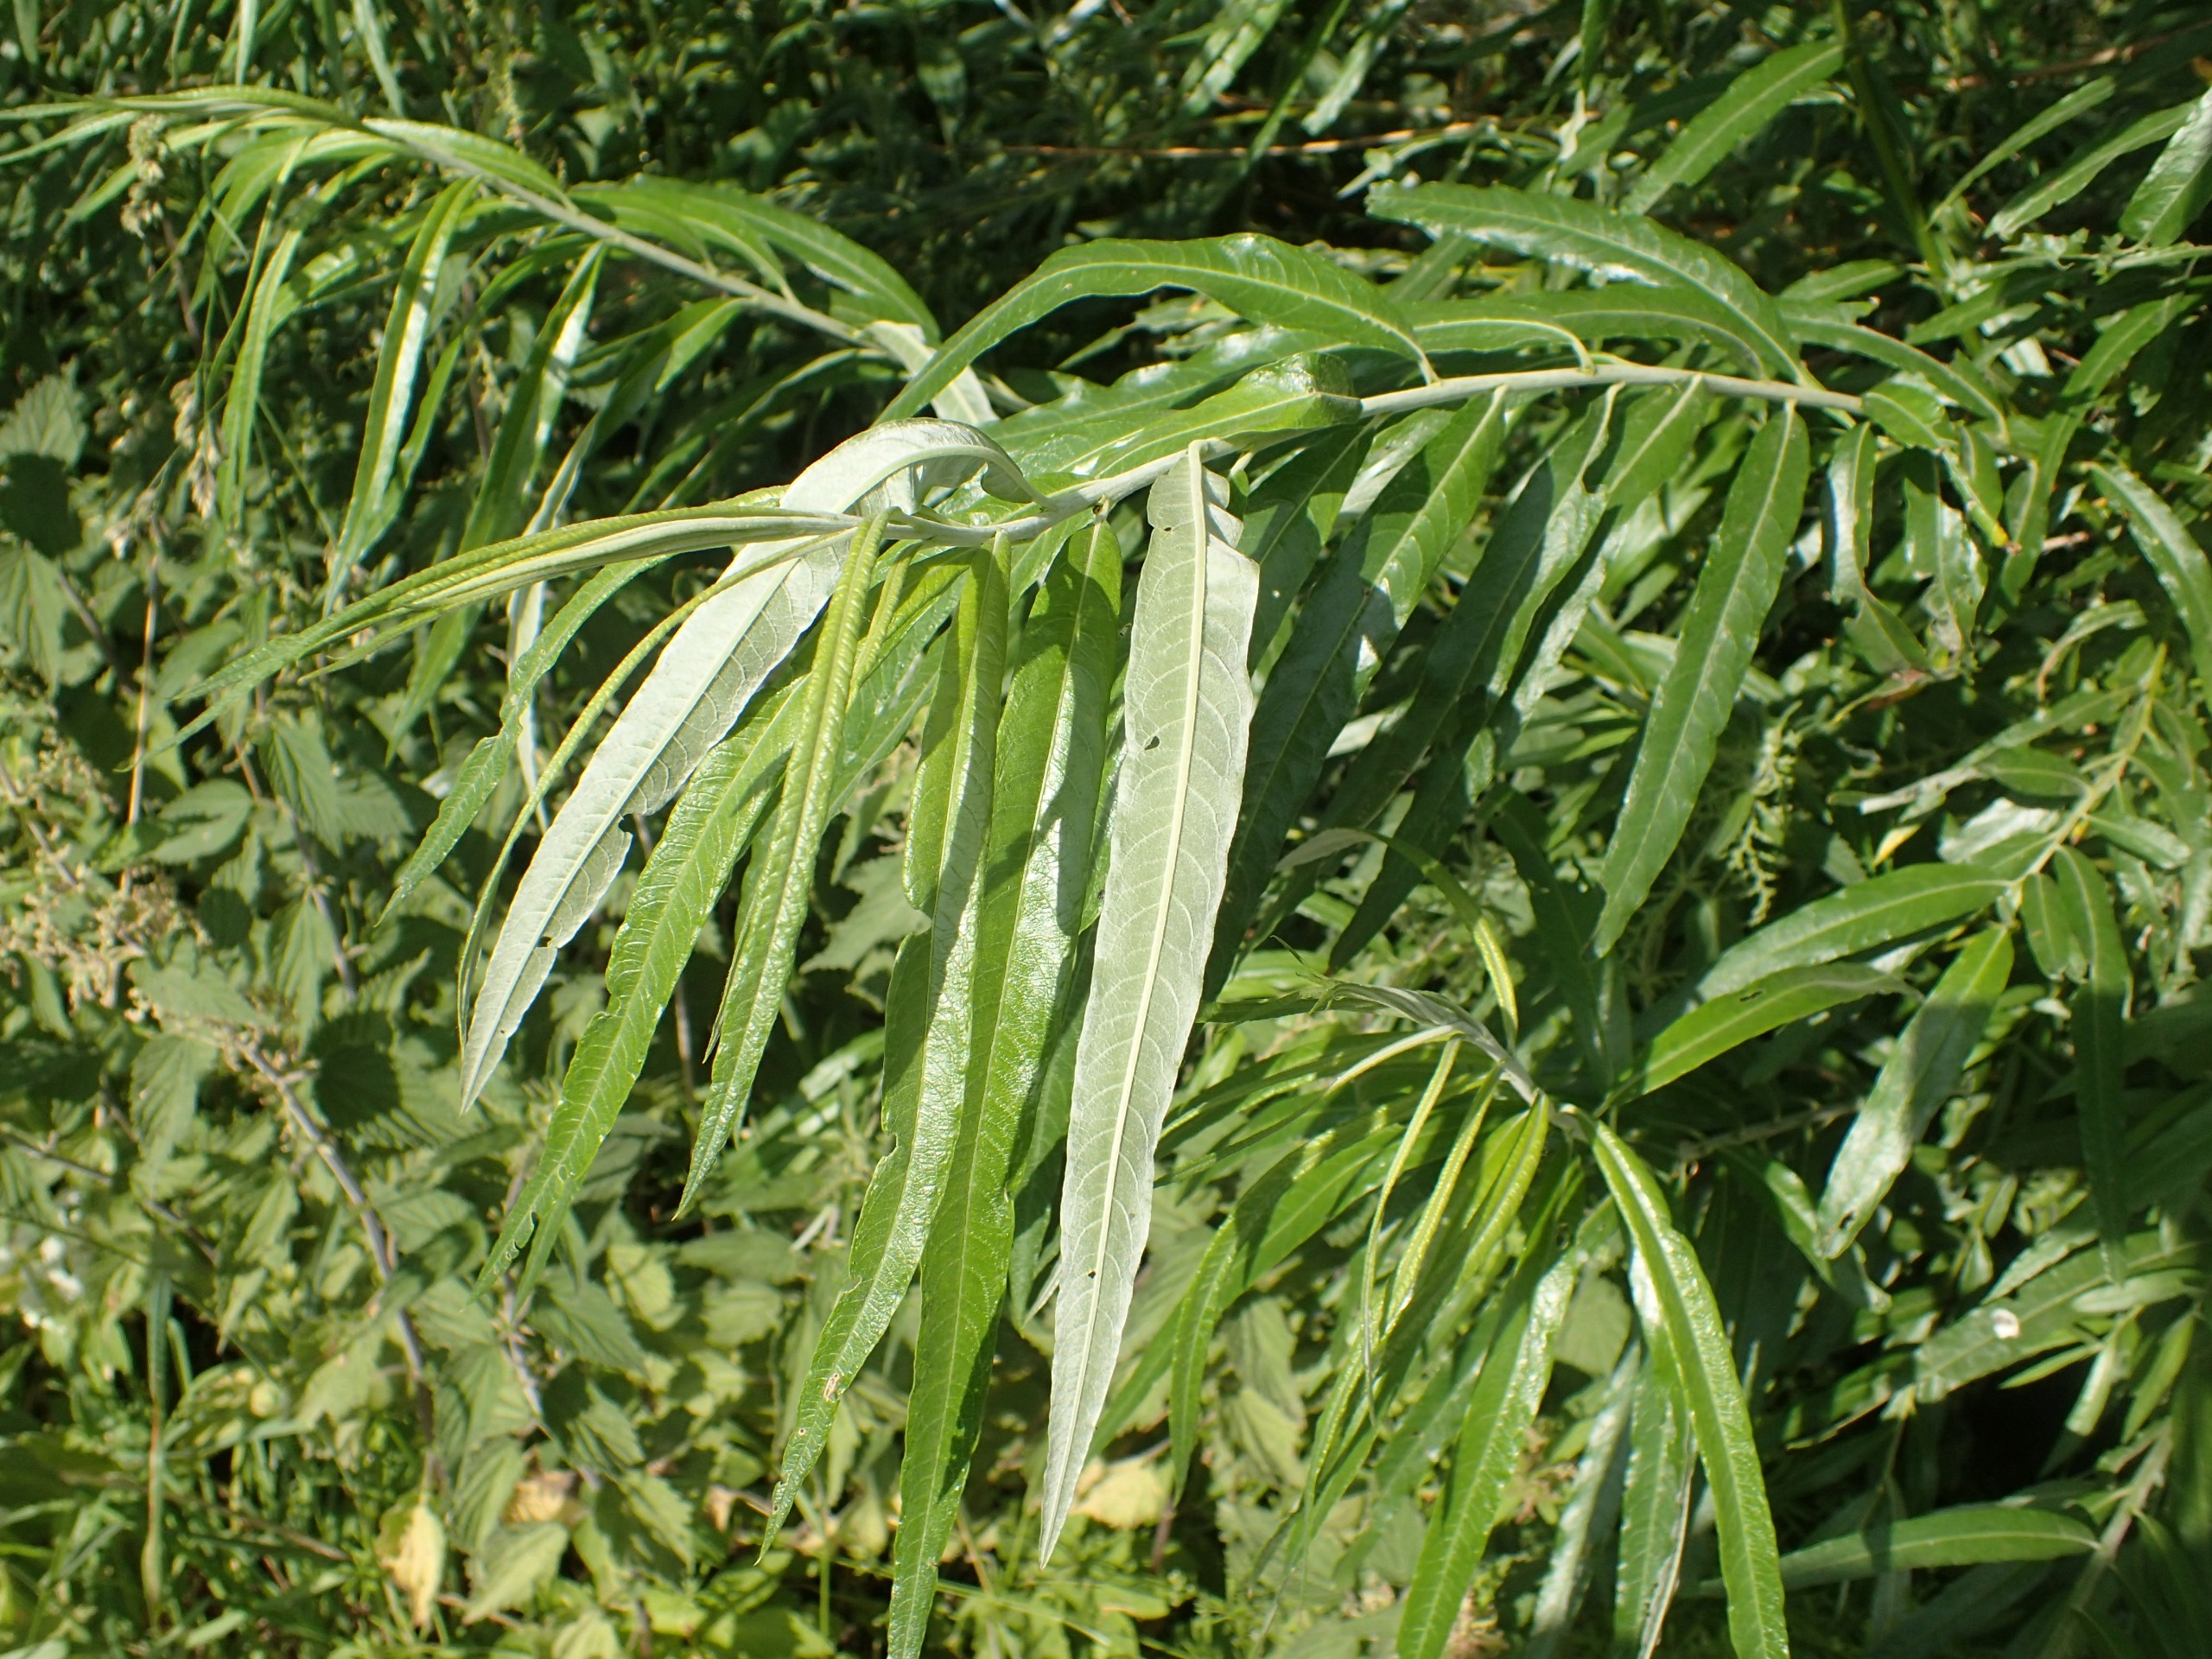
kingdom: Plantae
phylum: Tracheophyta
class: Magnoliopsida
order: Malpighiales
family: Salicaceae
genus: Salix
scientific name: Salix viminalis
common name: Bånd-pil
